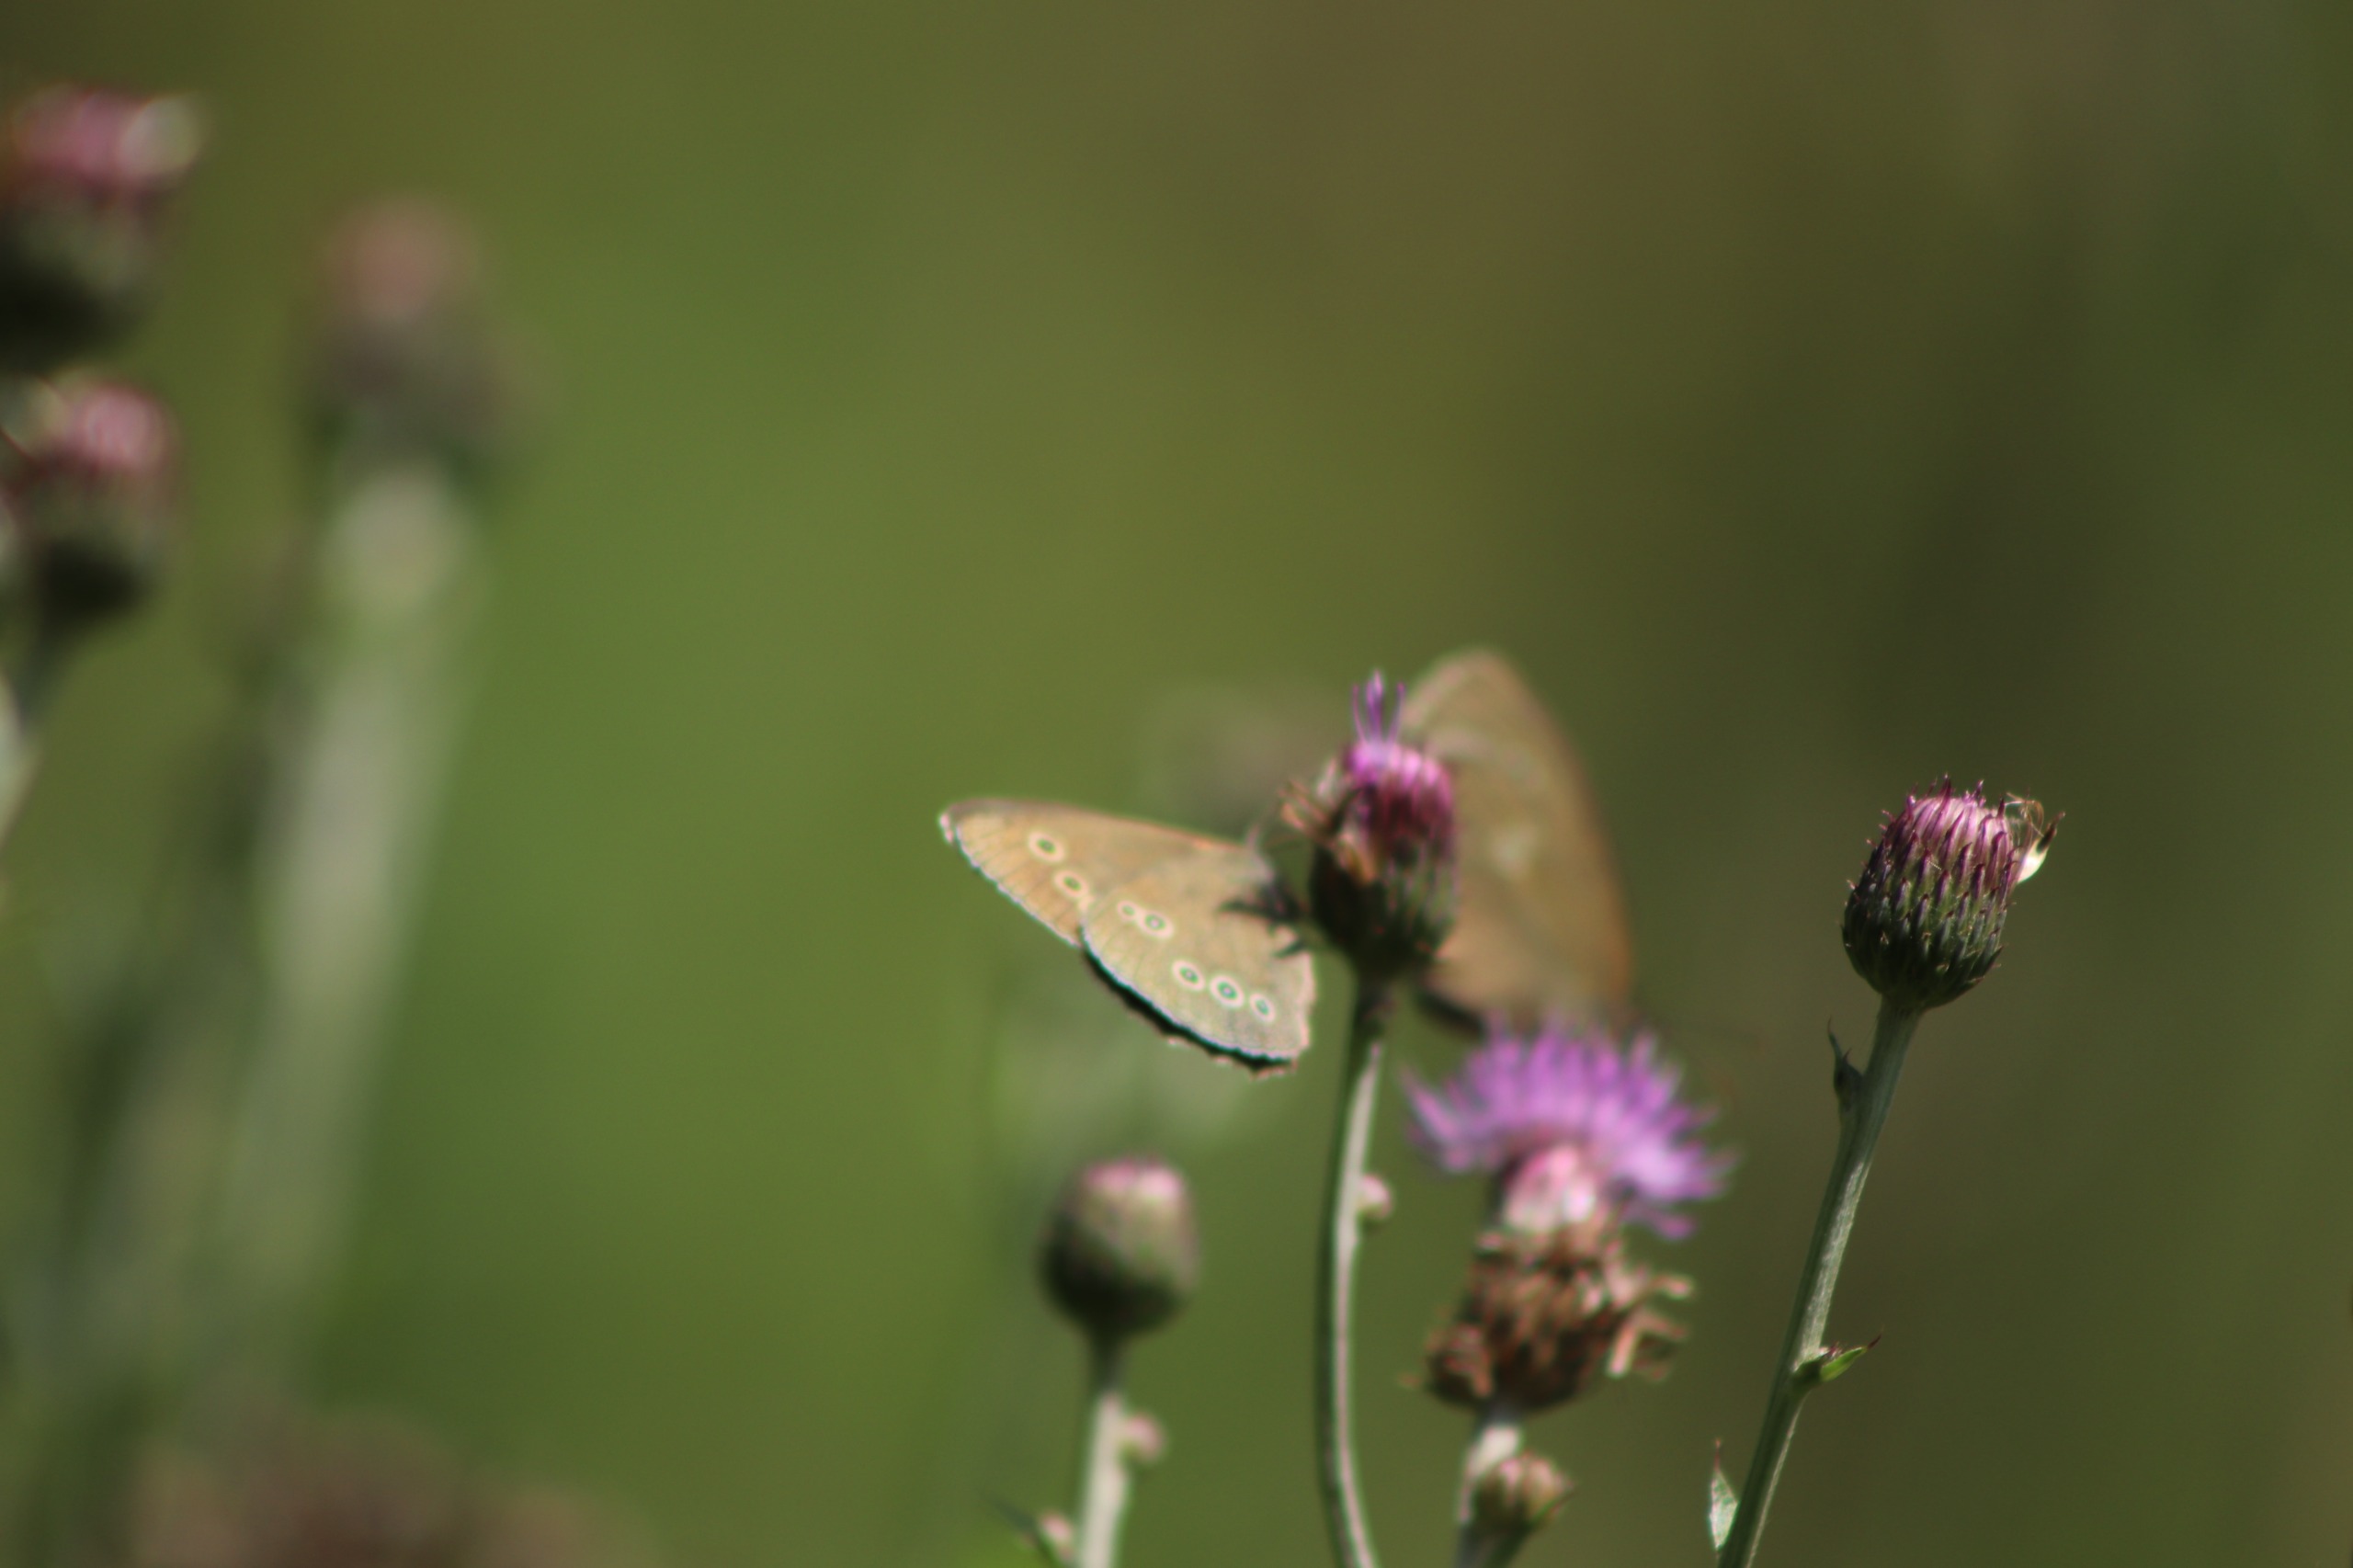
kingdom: Animalia
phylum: Arthropoda
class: Insecta
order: Lepidoptera
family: Nymphalidae
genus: Aphantopus
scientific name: Aphantopus hyperantus
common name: Engrandøje
